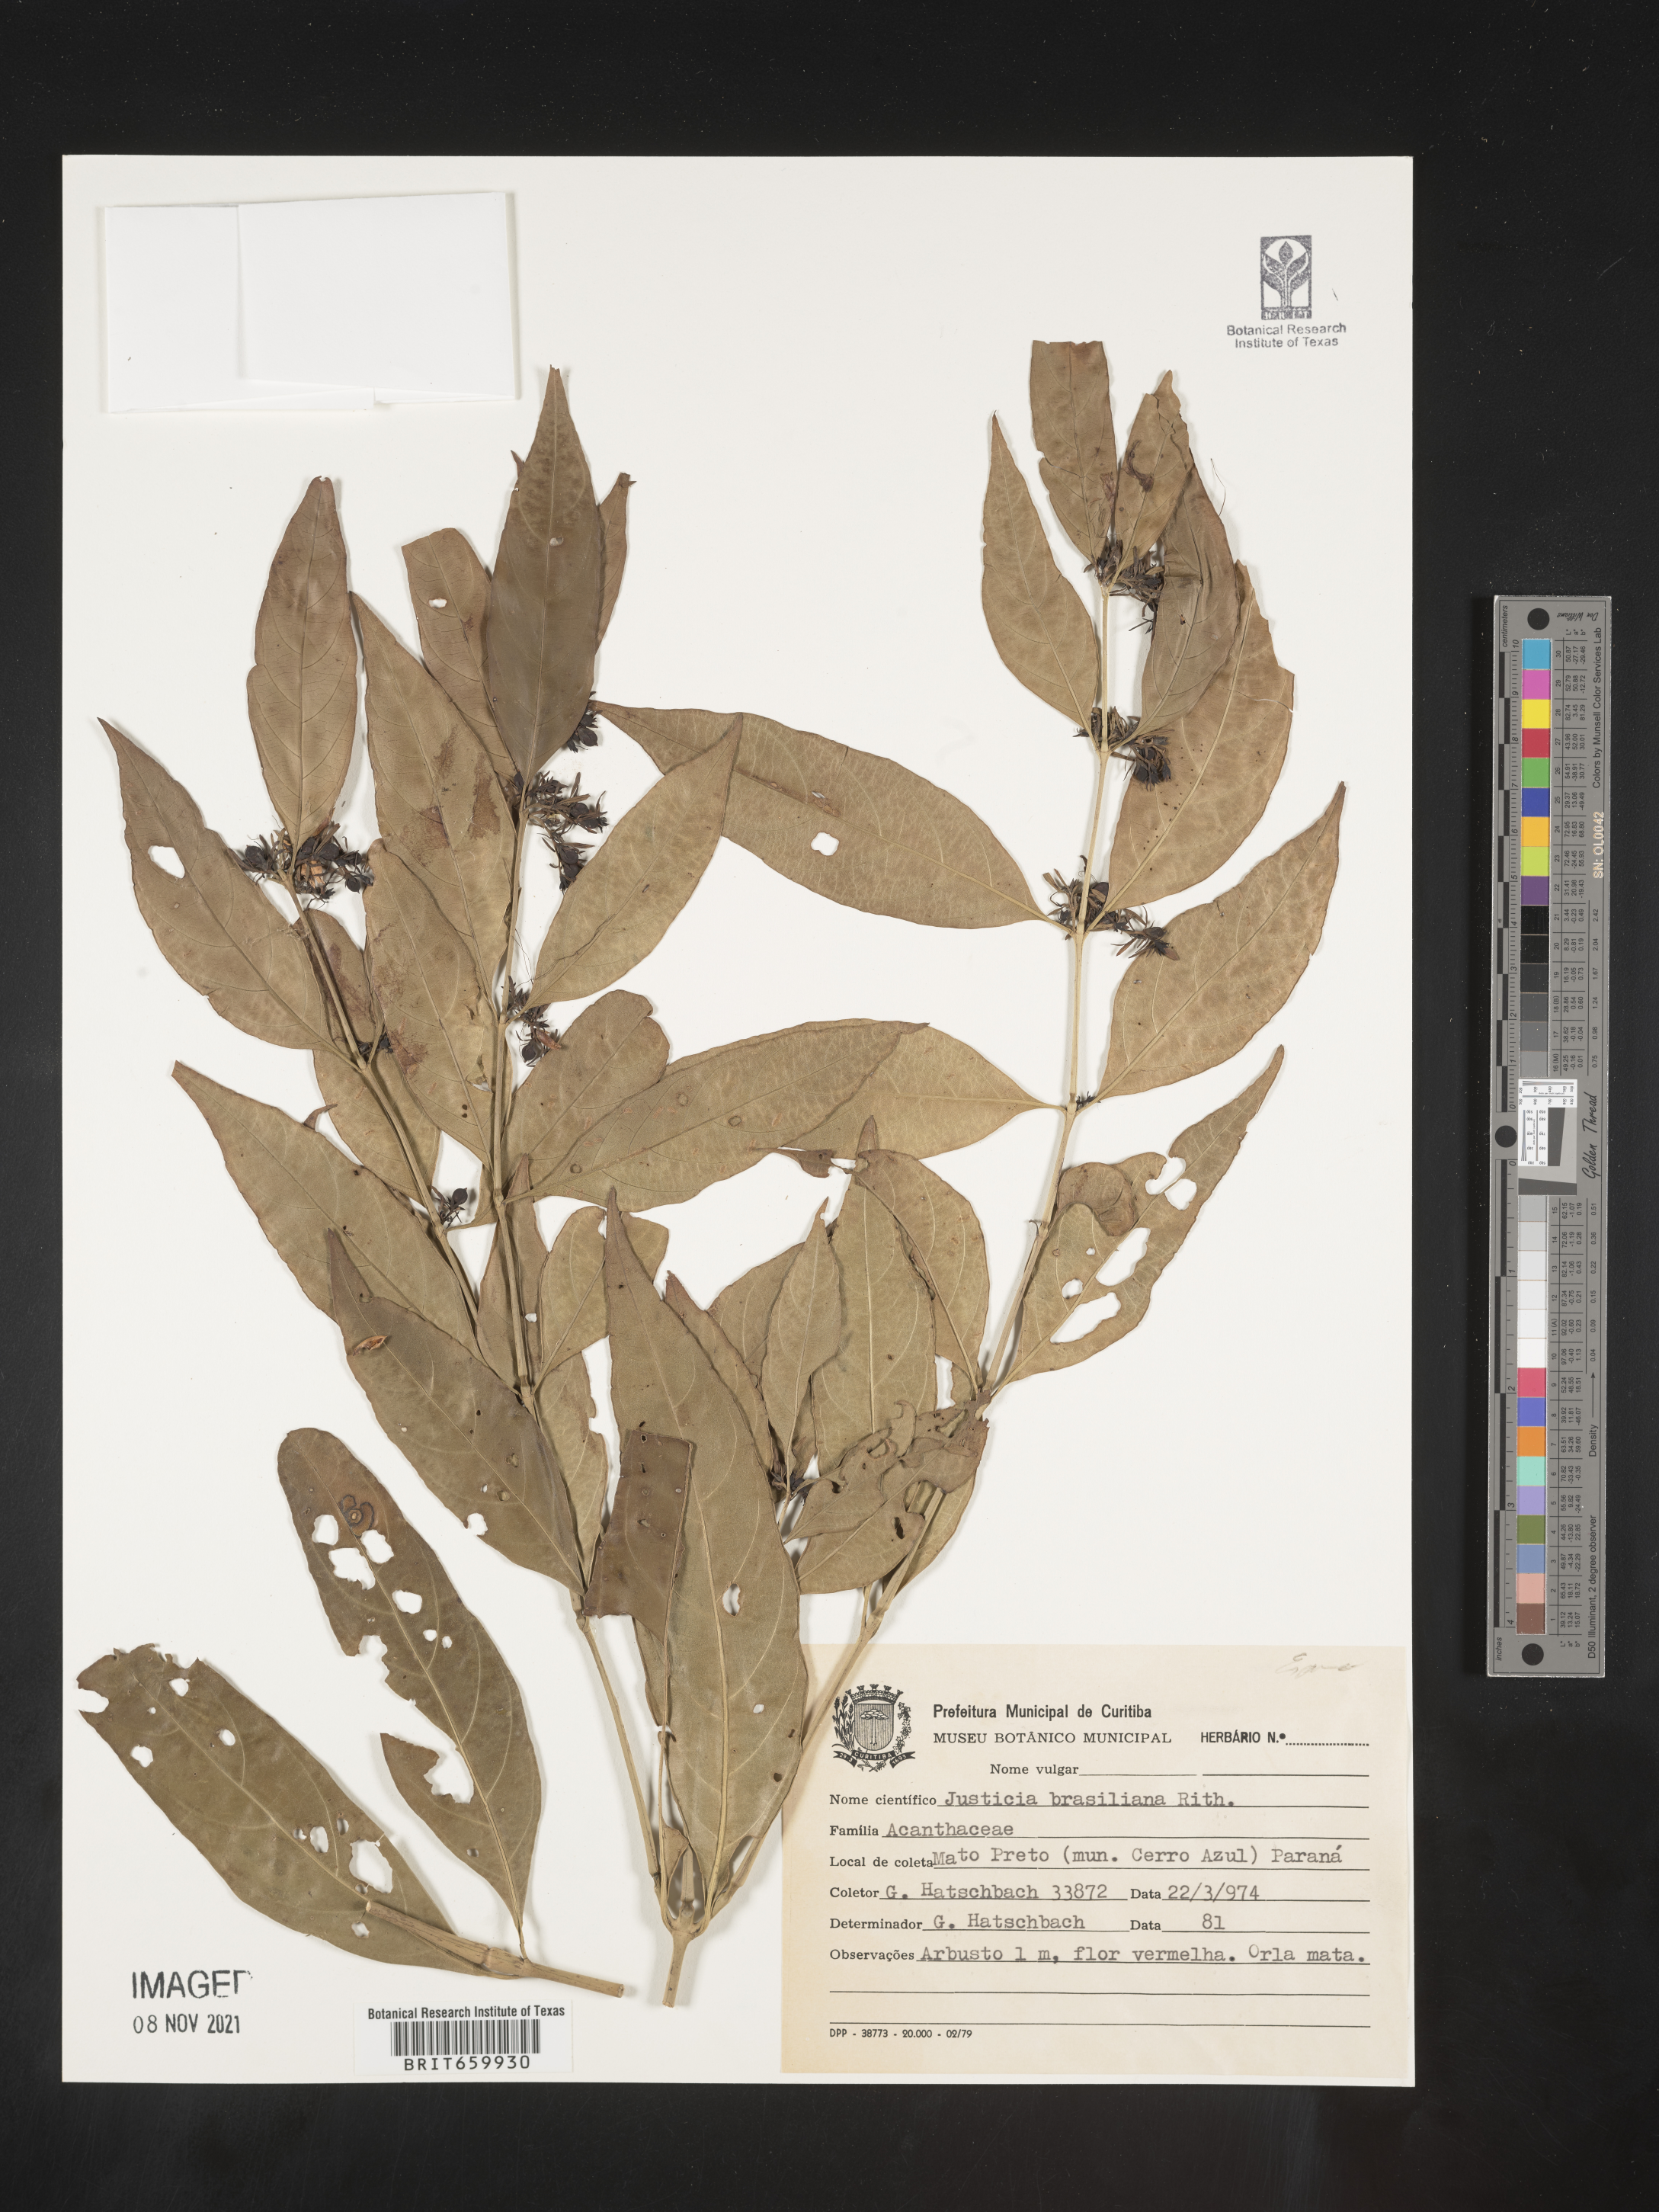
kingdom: Plantae
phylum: Tracheophyta
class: Magnoliopsida
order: Lamiales
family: Acanthaceae
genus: Justicia
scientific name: Justicia brasiliana
